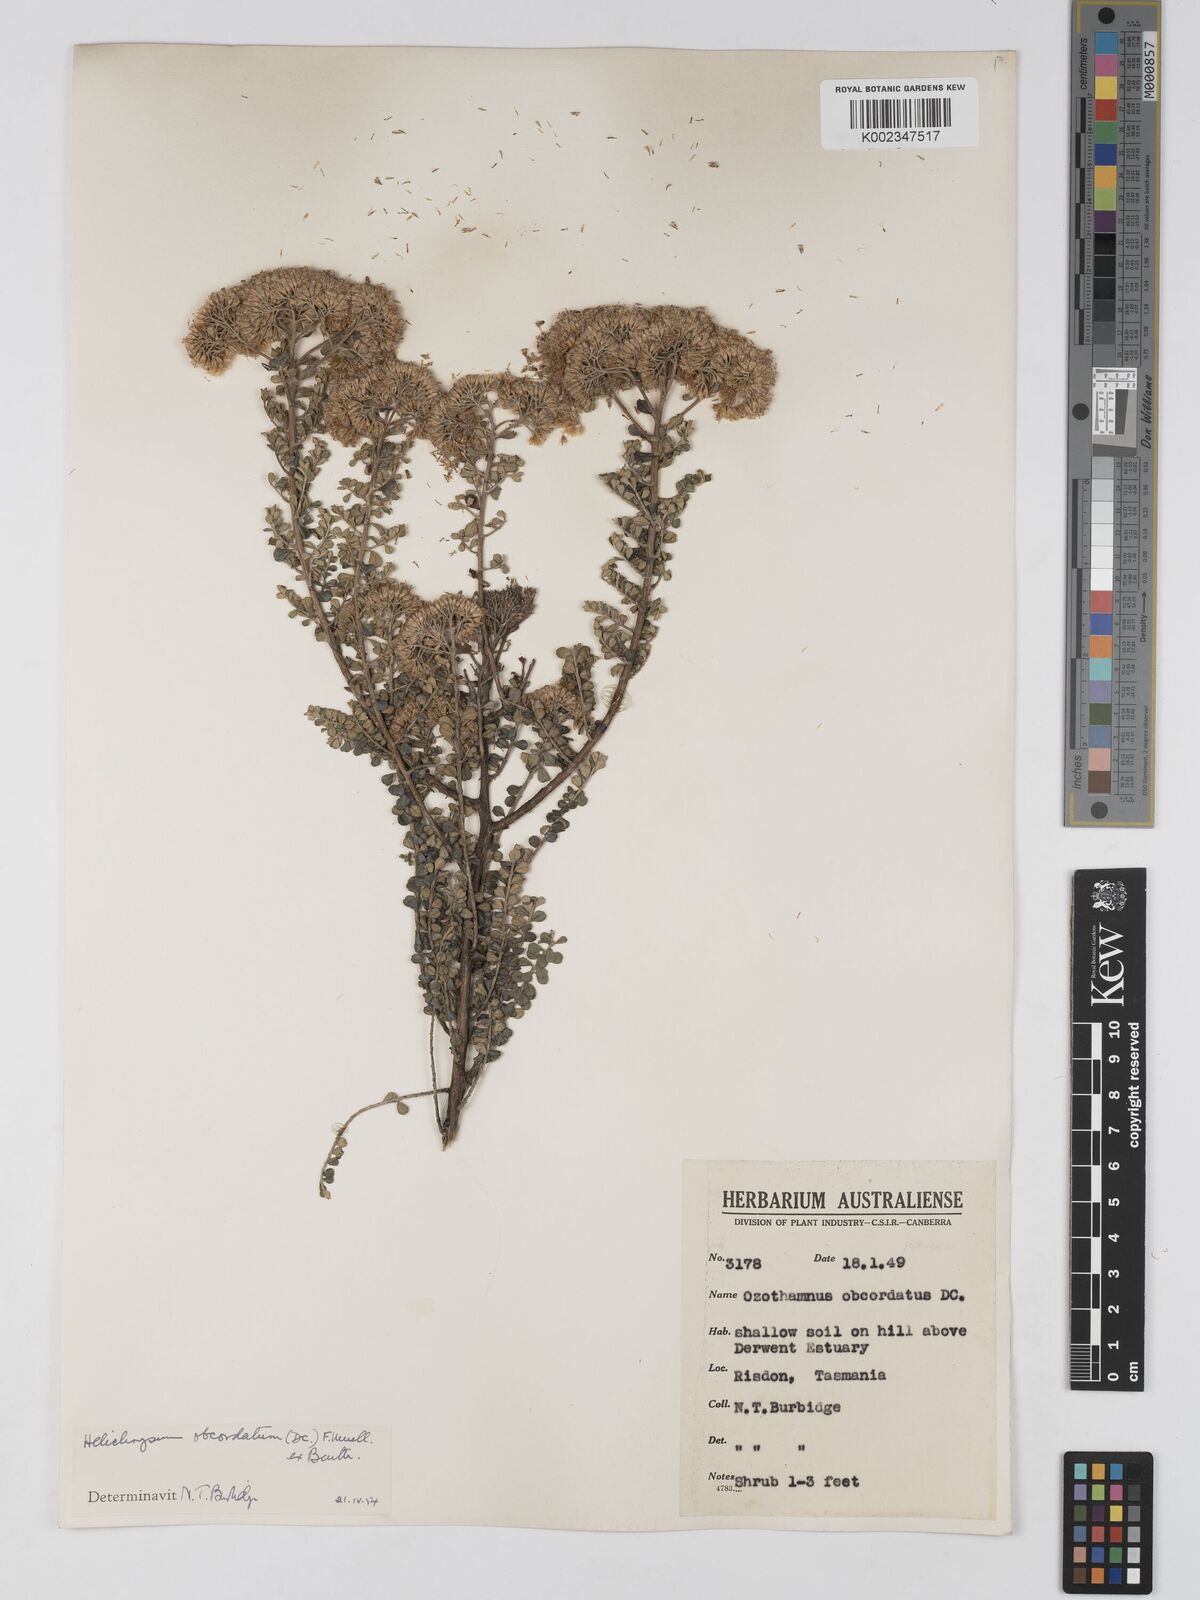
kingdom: Plantae
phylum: Tracheophyta
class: Magnoliopsida
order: Asterales
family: Asteraceae
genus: Ozothamnus
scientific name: Ozothamnus
